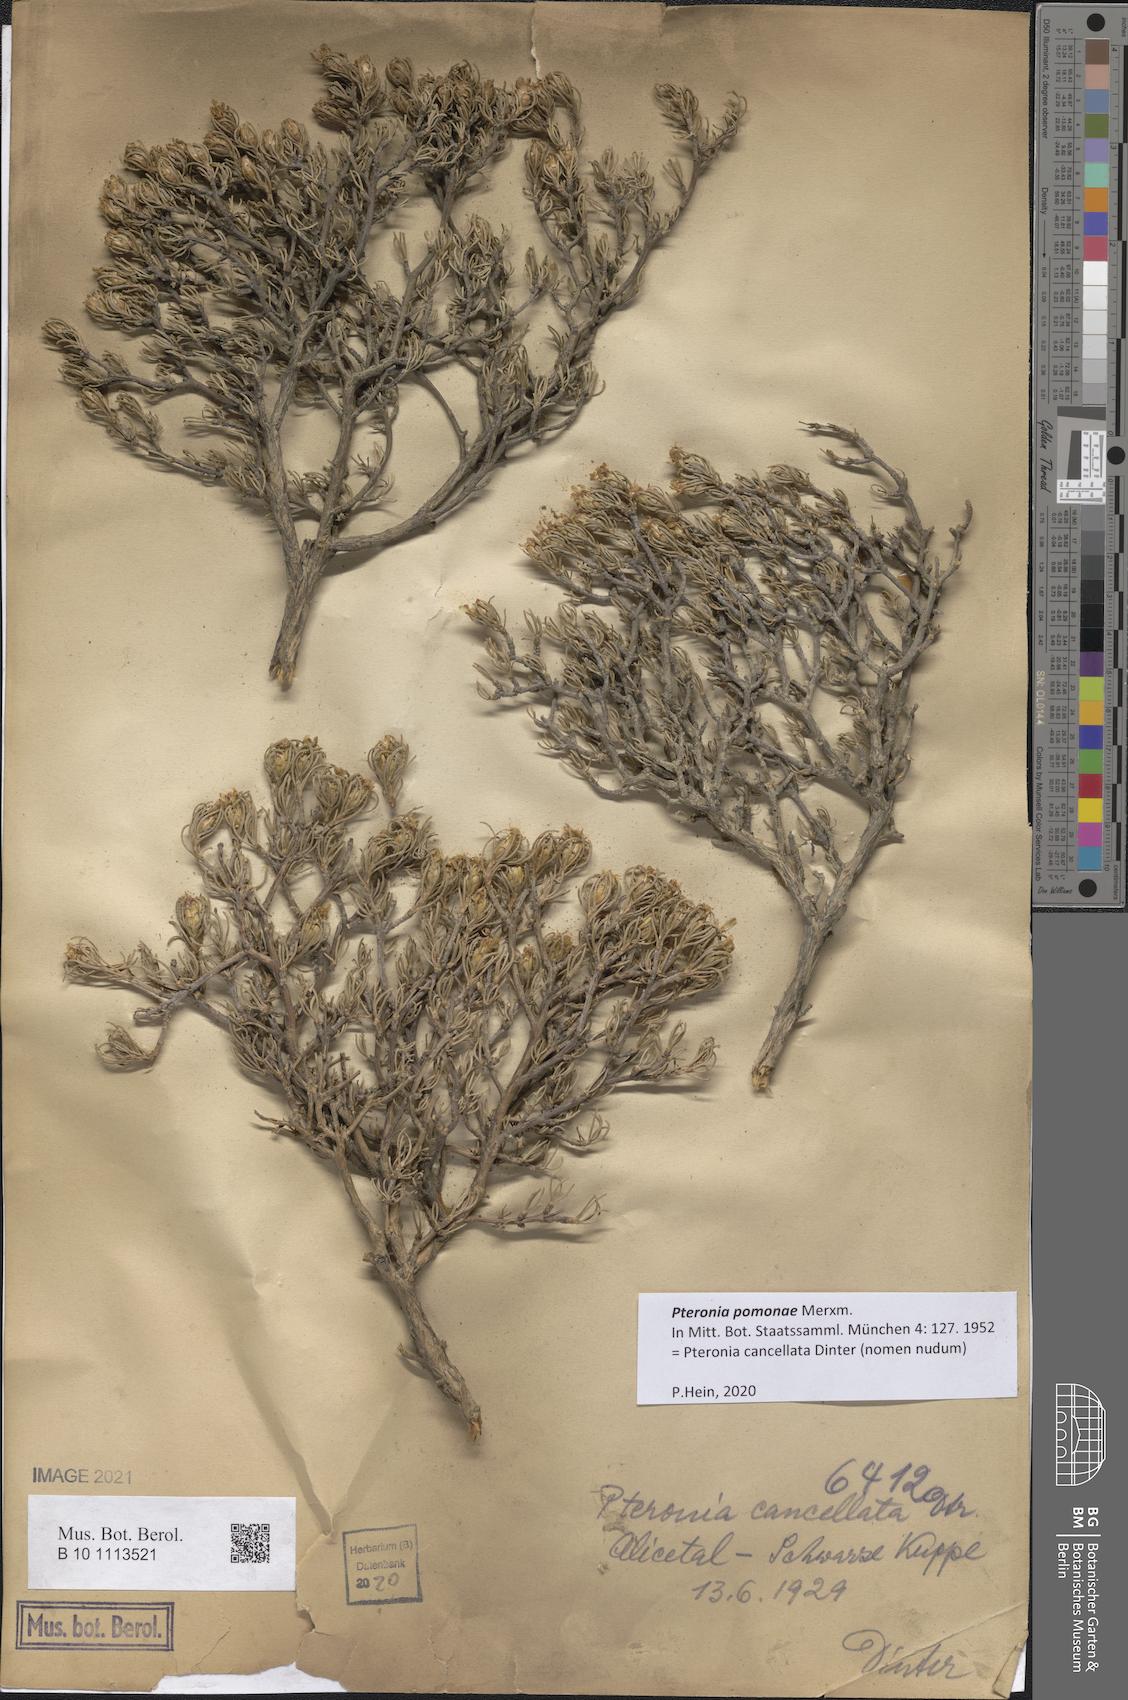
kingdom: Plantae
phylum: Tracheophyta
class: Magnoliopsida
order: Asterales
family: Asteraceae
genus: Pteronia
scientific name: Pteronia pomonae
